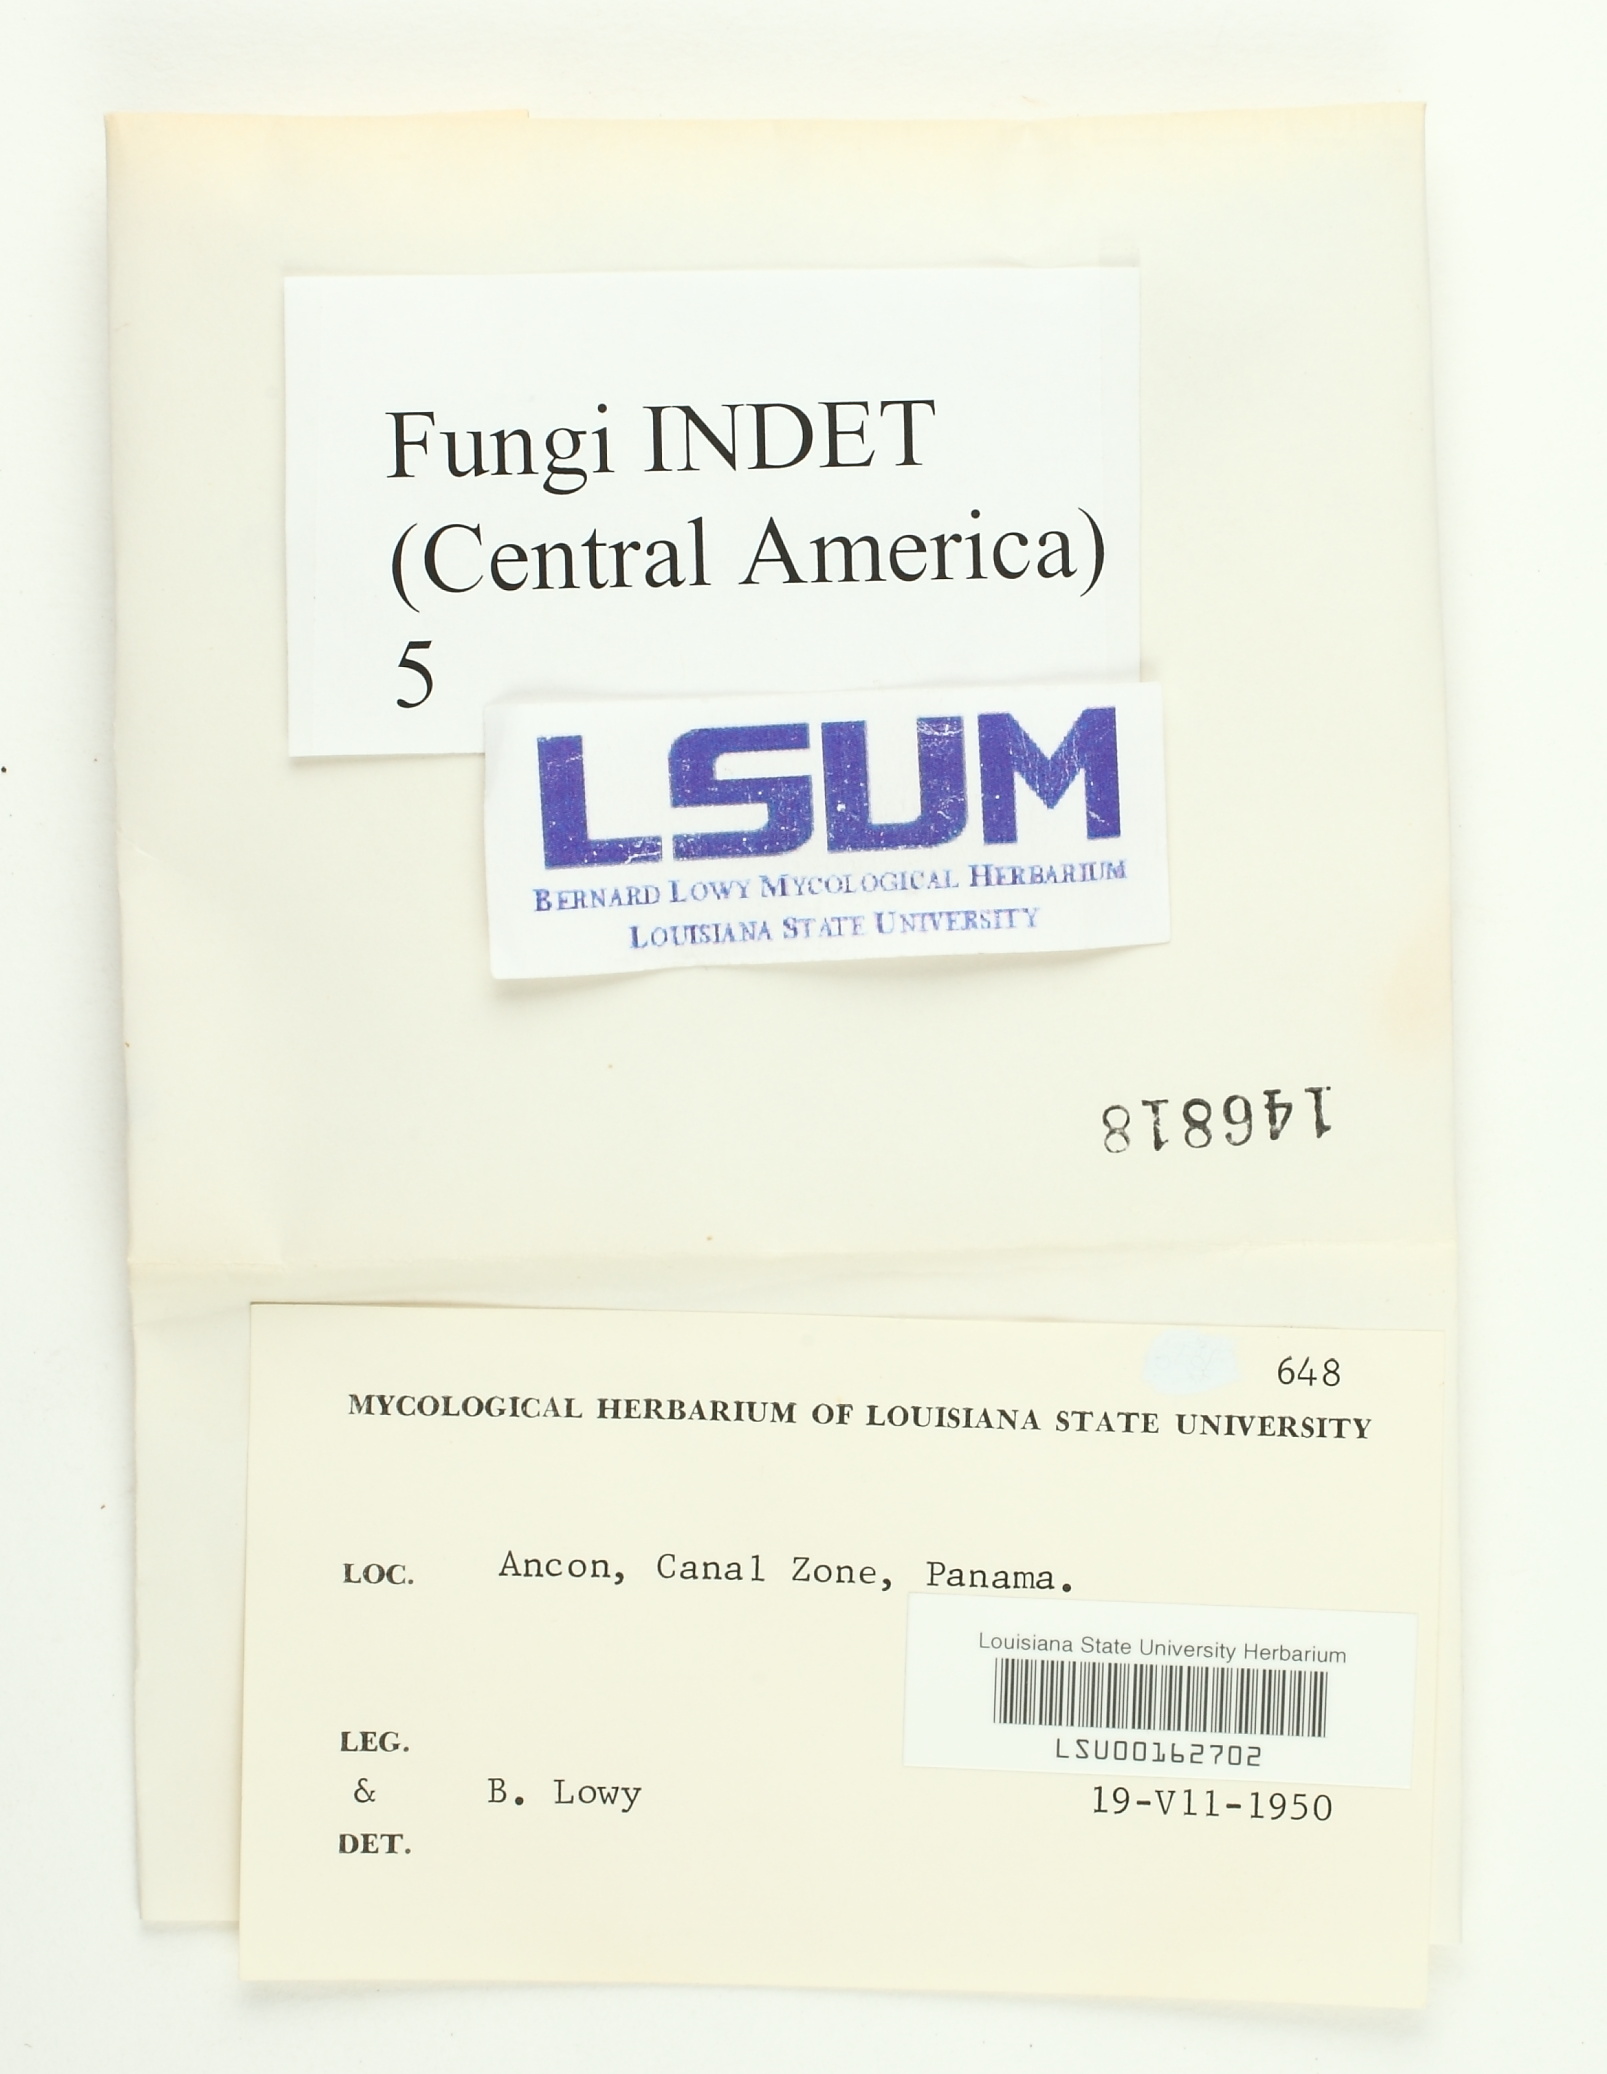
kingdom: Fungi
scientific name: Fungi
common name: Fungi
